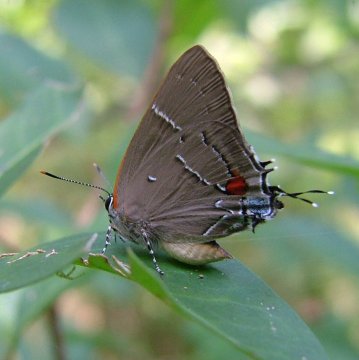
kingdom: Animalia
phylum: Arthropoda
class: Insecta
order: Lepidoptera
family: Lycaenidae
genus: Parrhasius
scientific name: Parrhasius m-album
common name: White-m Hairstreak
